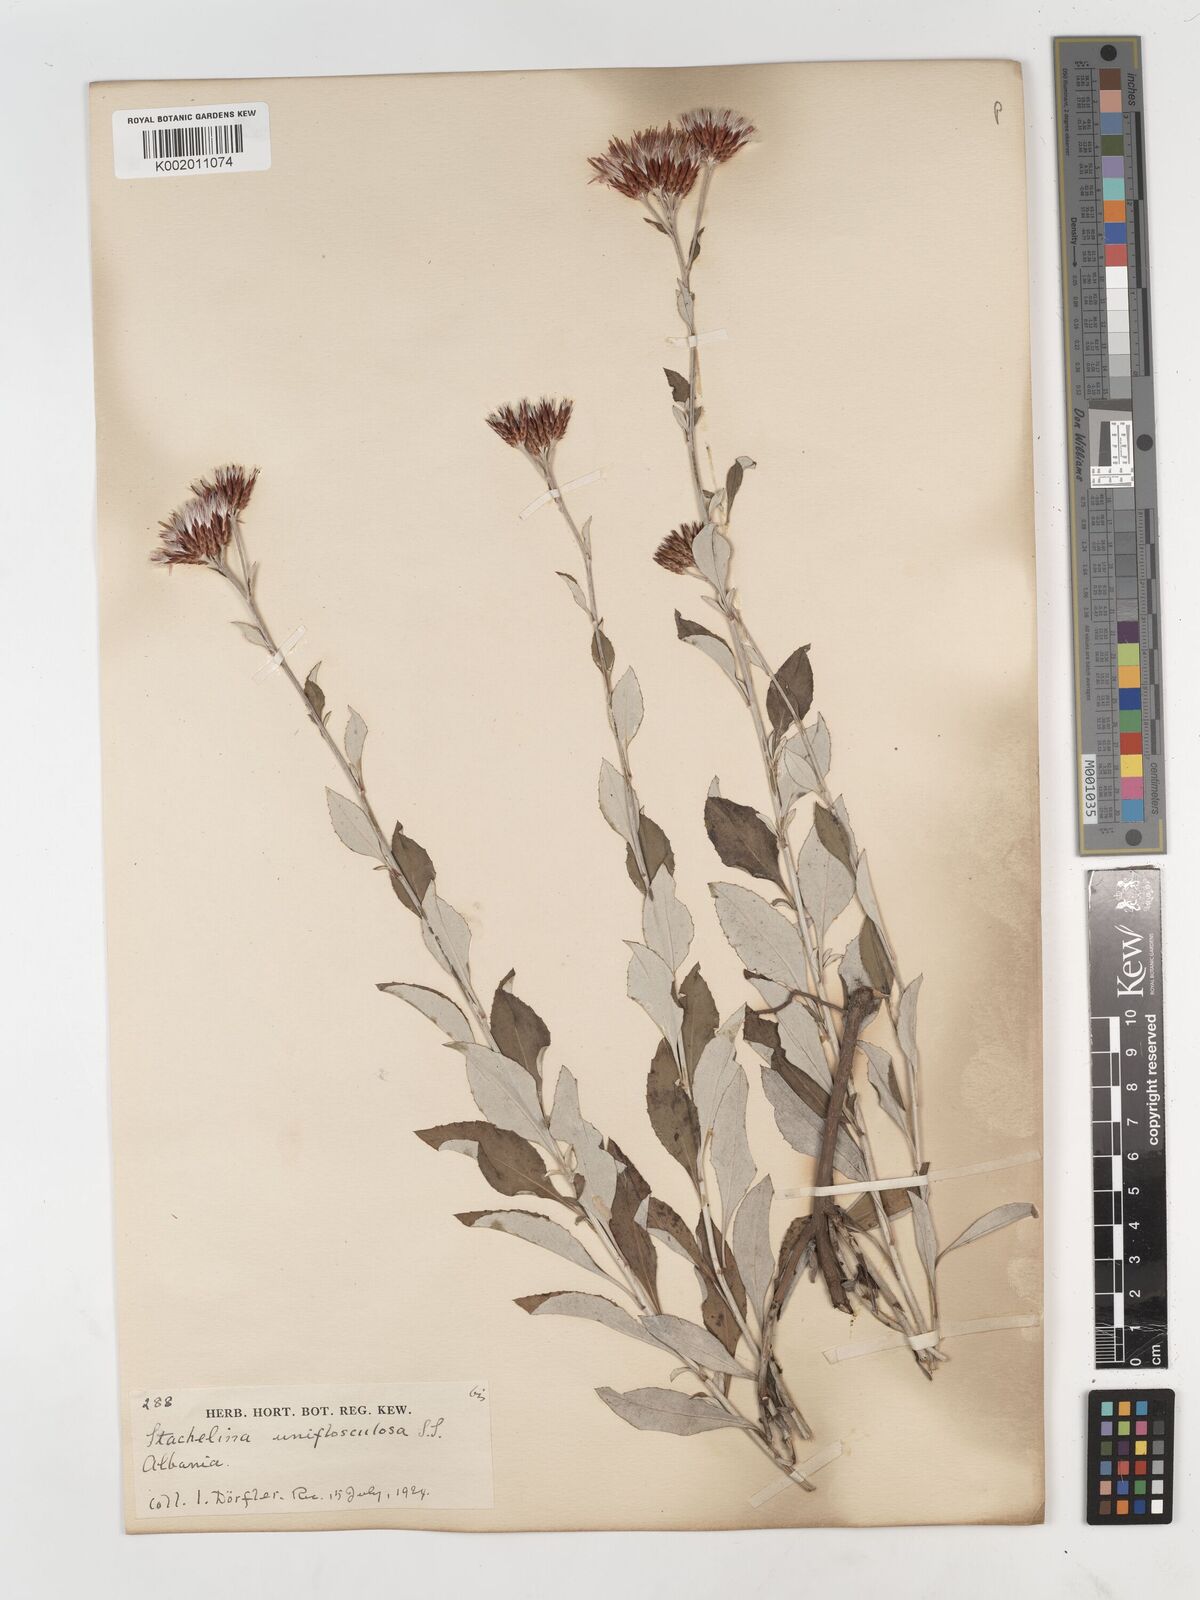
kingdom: Plantae
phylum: Tracheophyta
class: Magnoliopsida
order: Asterales
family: Asteraceae
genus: Staehelina
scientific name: Staehelina uniflosculosa
